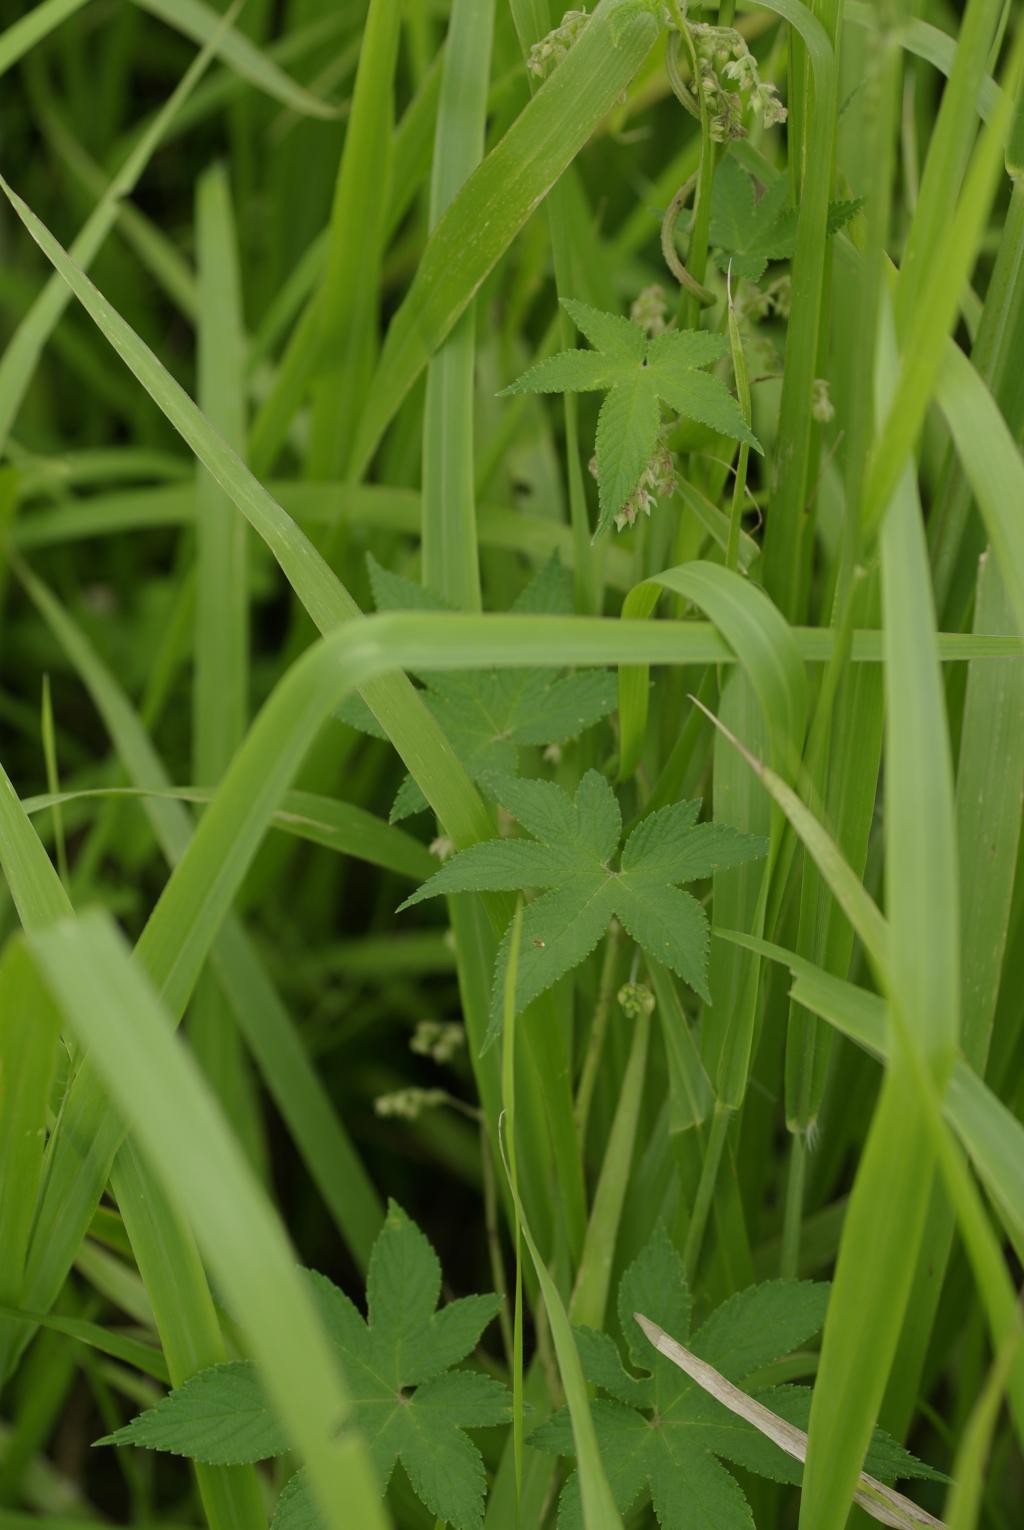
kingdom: Plantae
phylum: Tracheophyta
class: Magnoliopsida
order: Rosales
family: Cannabaceae
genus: Humulus
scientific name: Humulus scandens
